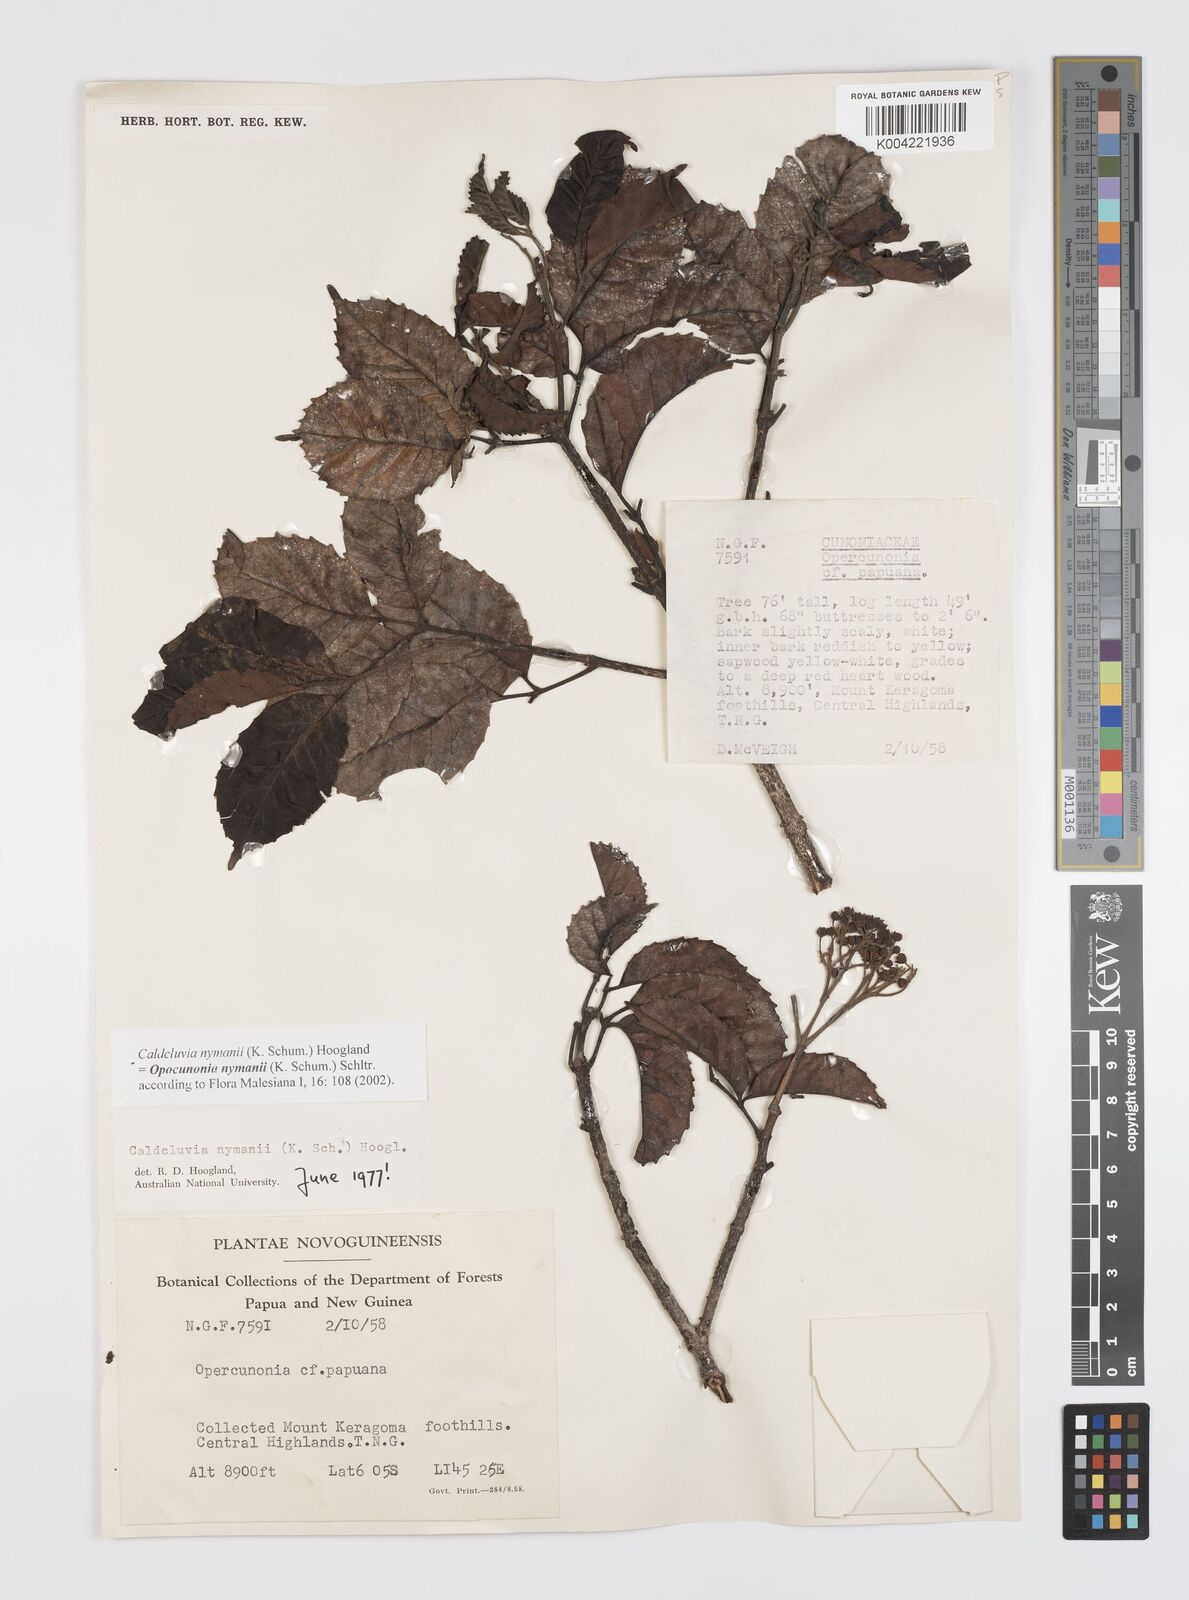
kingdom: Plantae
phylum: Tracheophyta
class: Magnoliopsida
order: Oxalidales
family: Cunoniaceae
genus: Opocunonia
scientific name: Opocunonia nymanii
